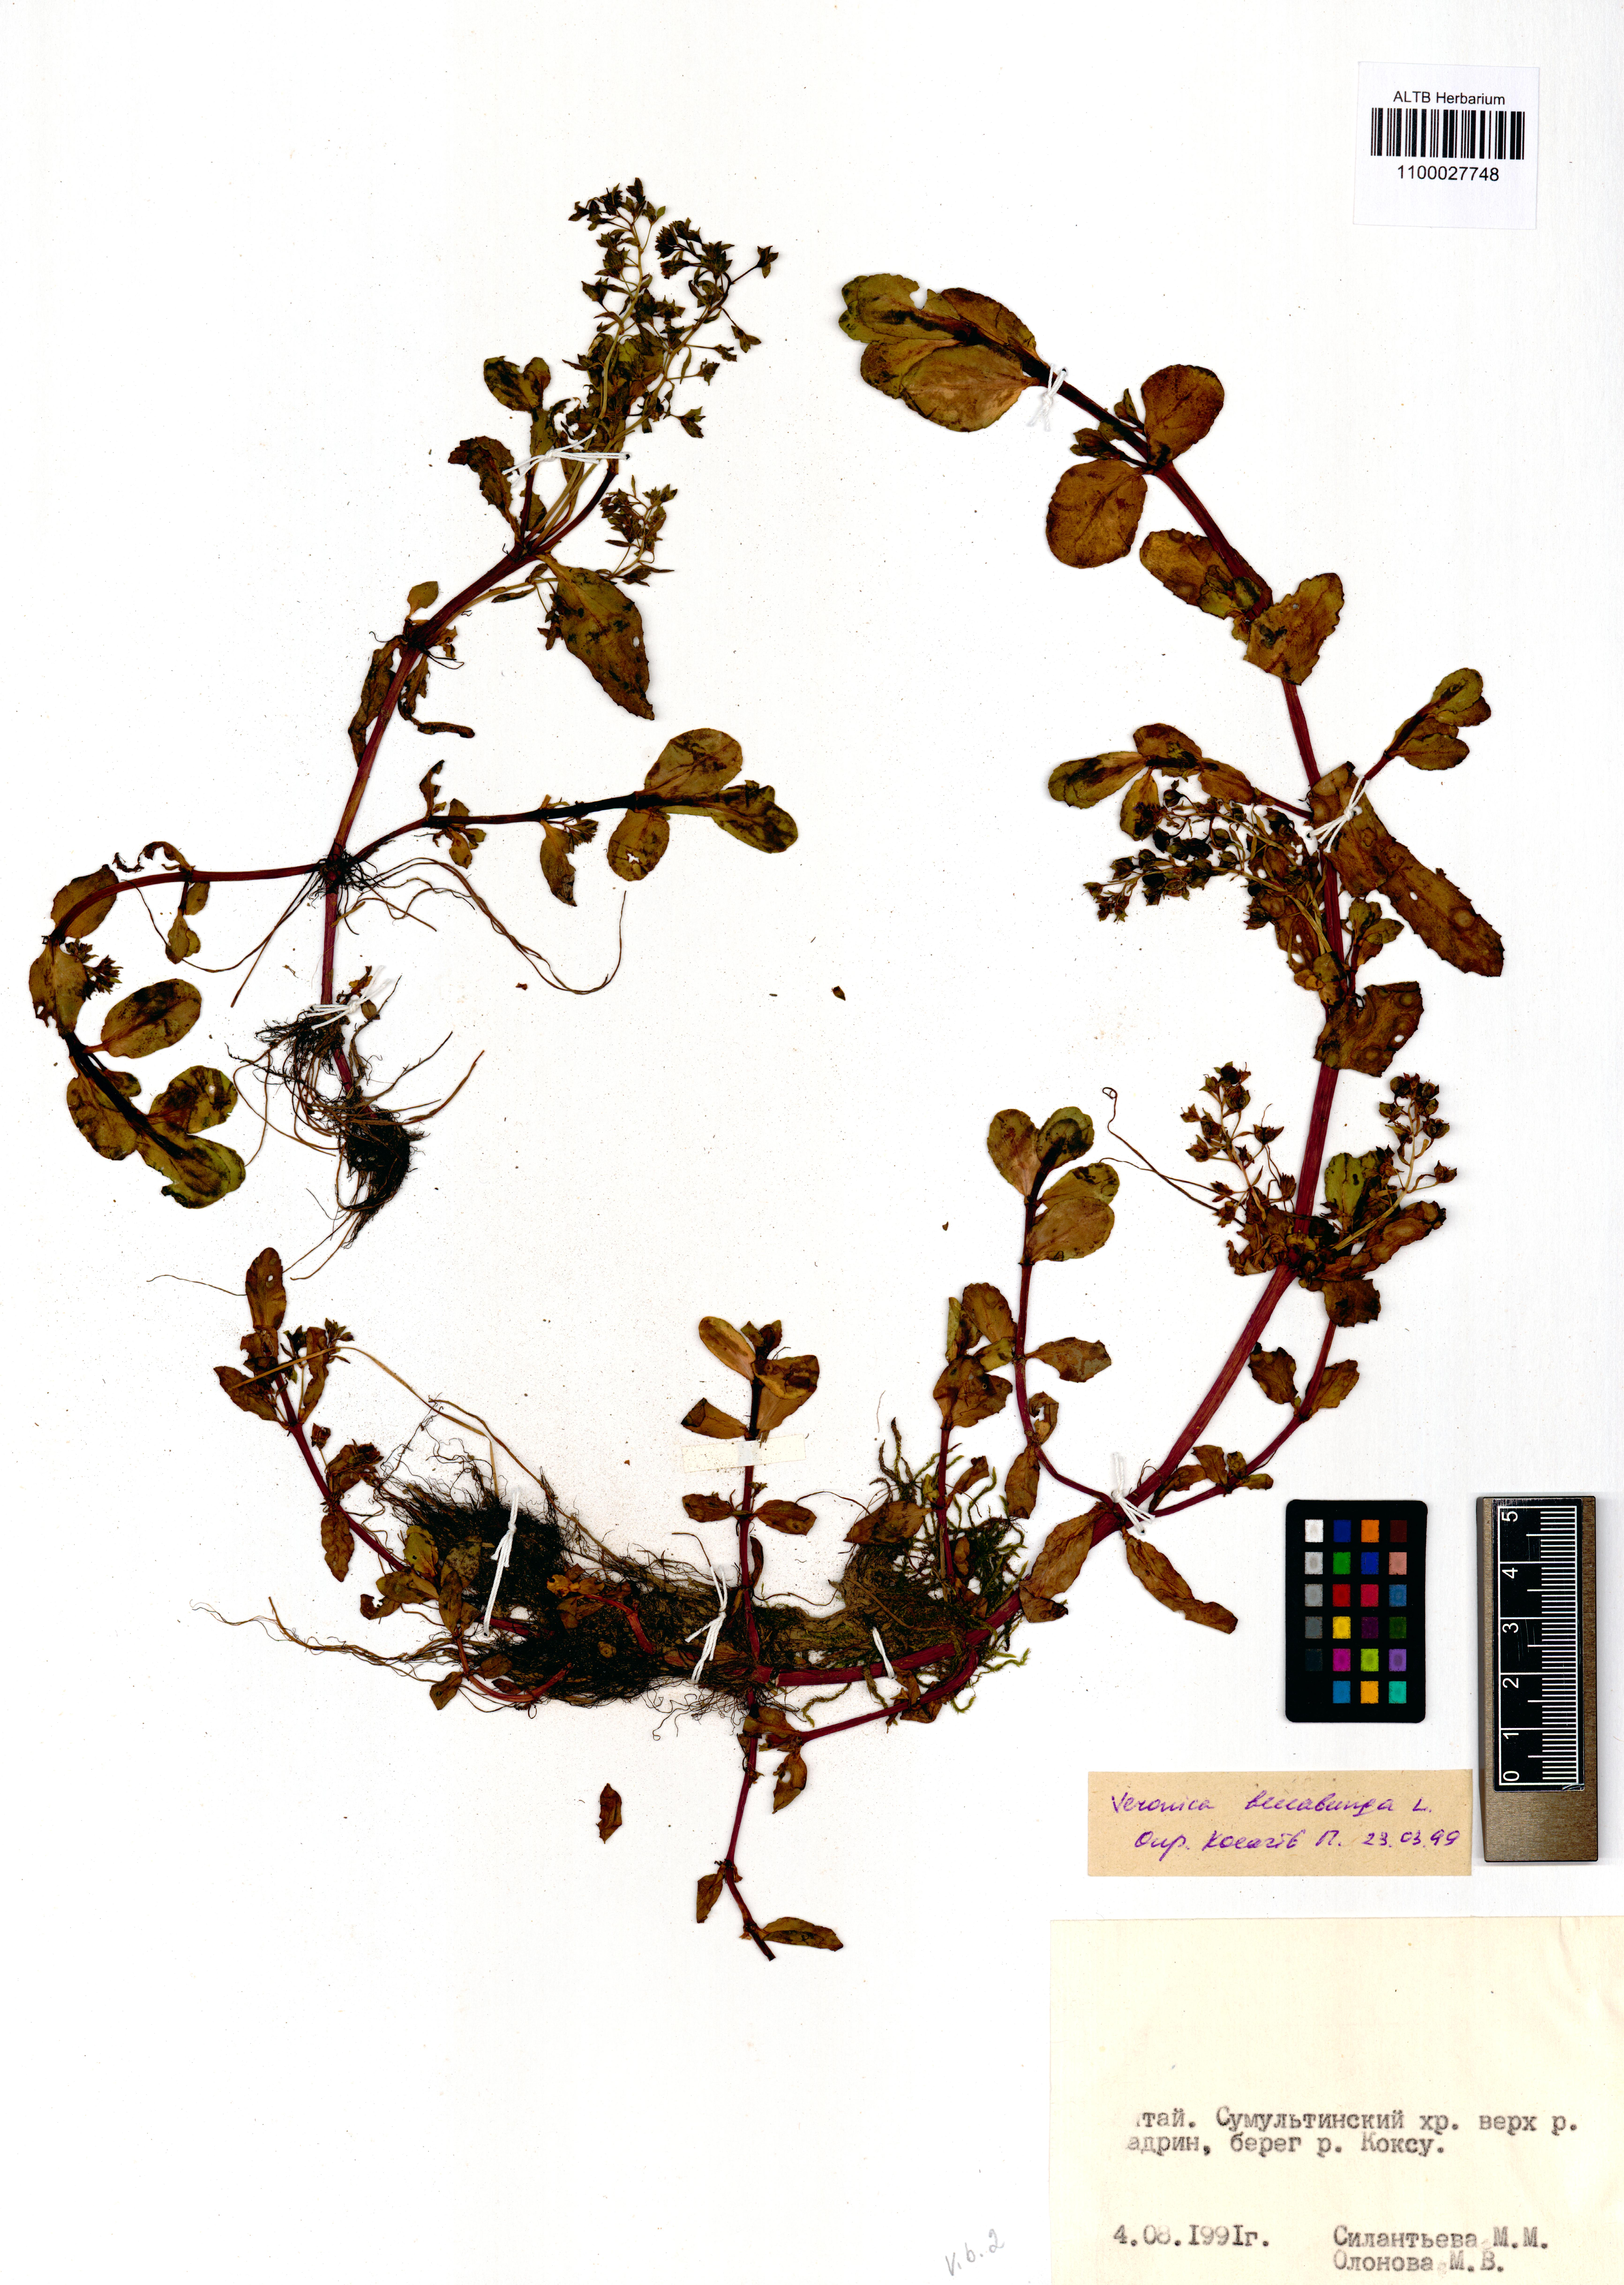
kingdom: Plantae
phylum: Tracheophyta
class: Magnoliopsida
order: Lamiales
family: Plantaginaceae
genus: Veronica
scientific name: Veronica beccabunga
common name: Brooklime
